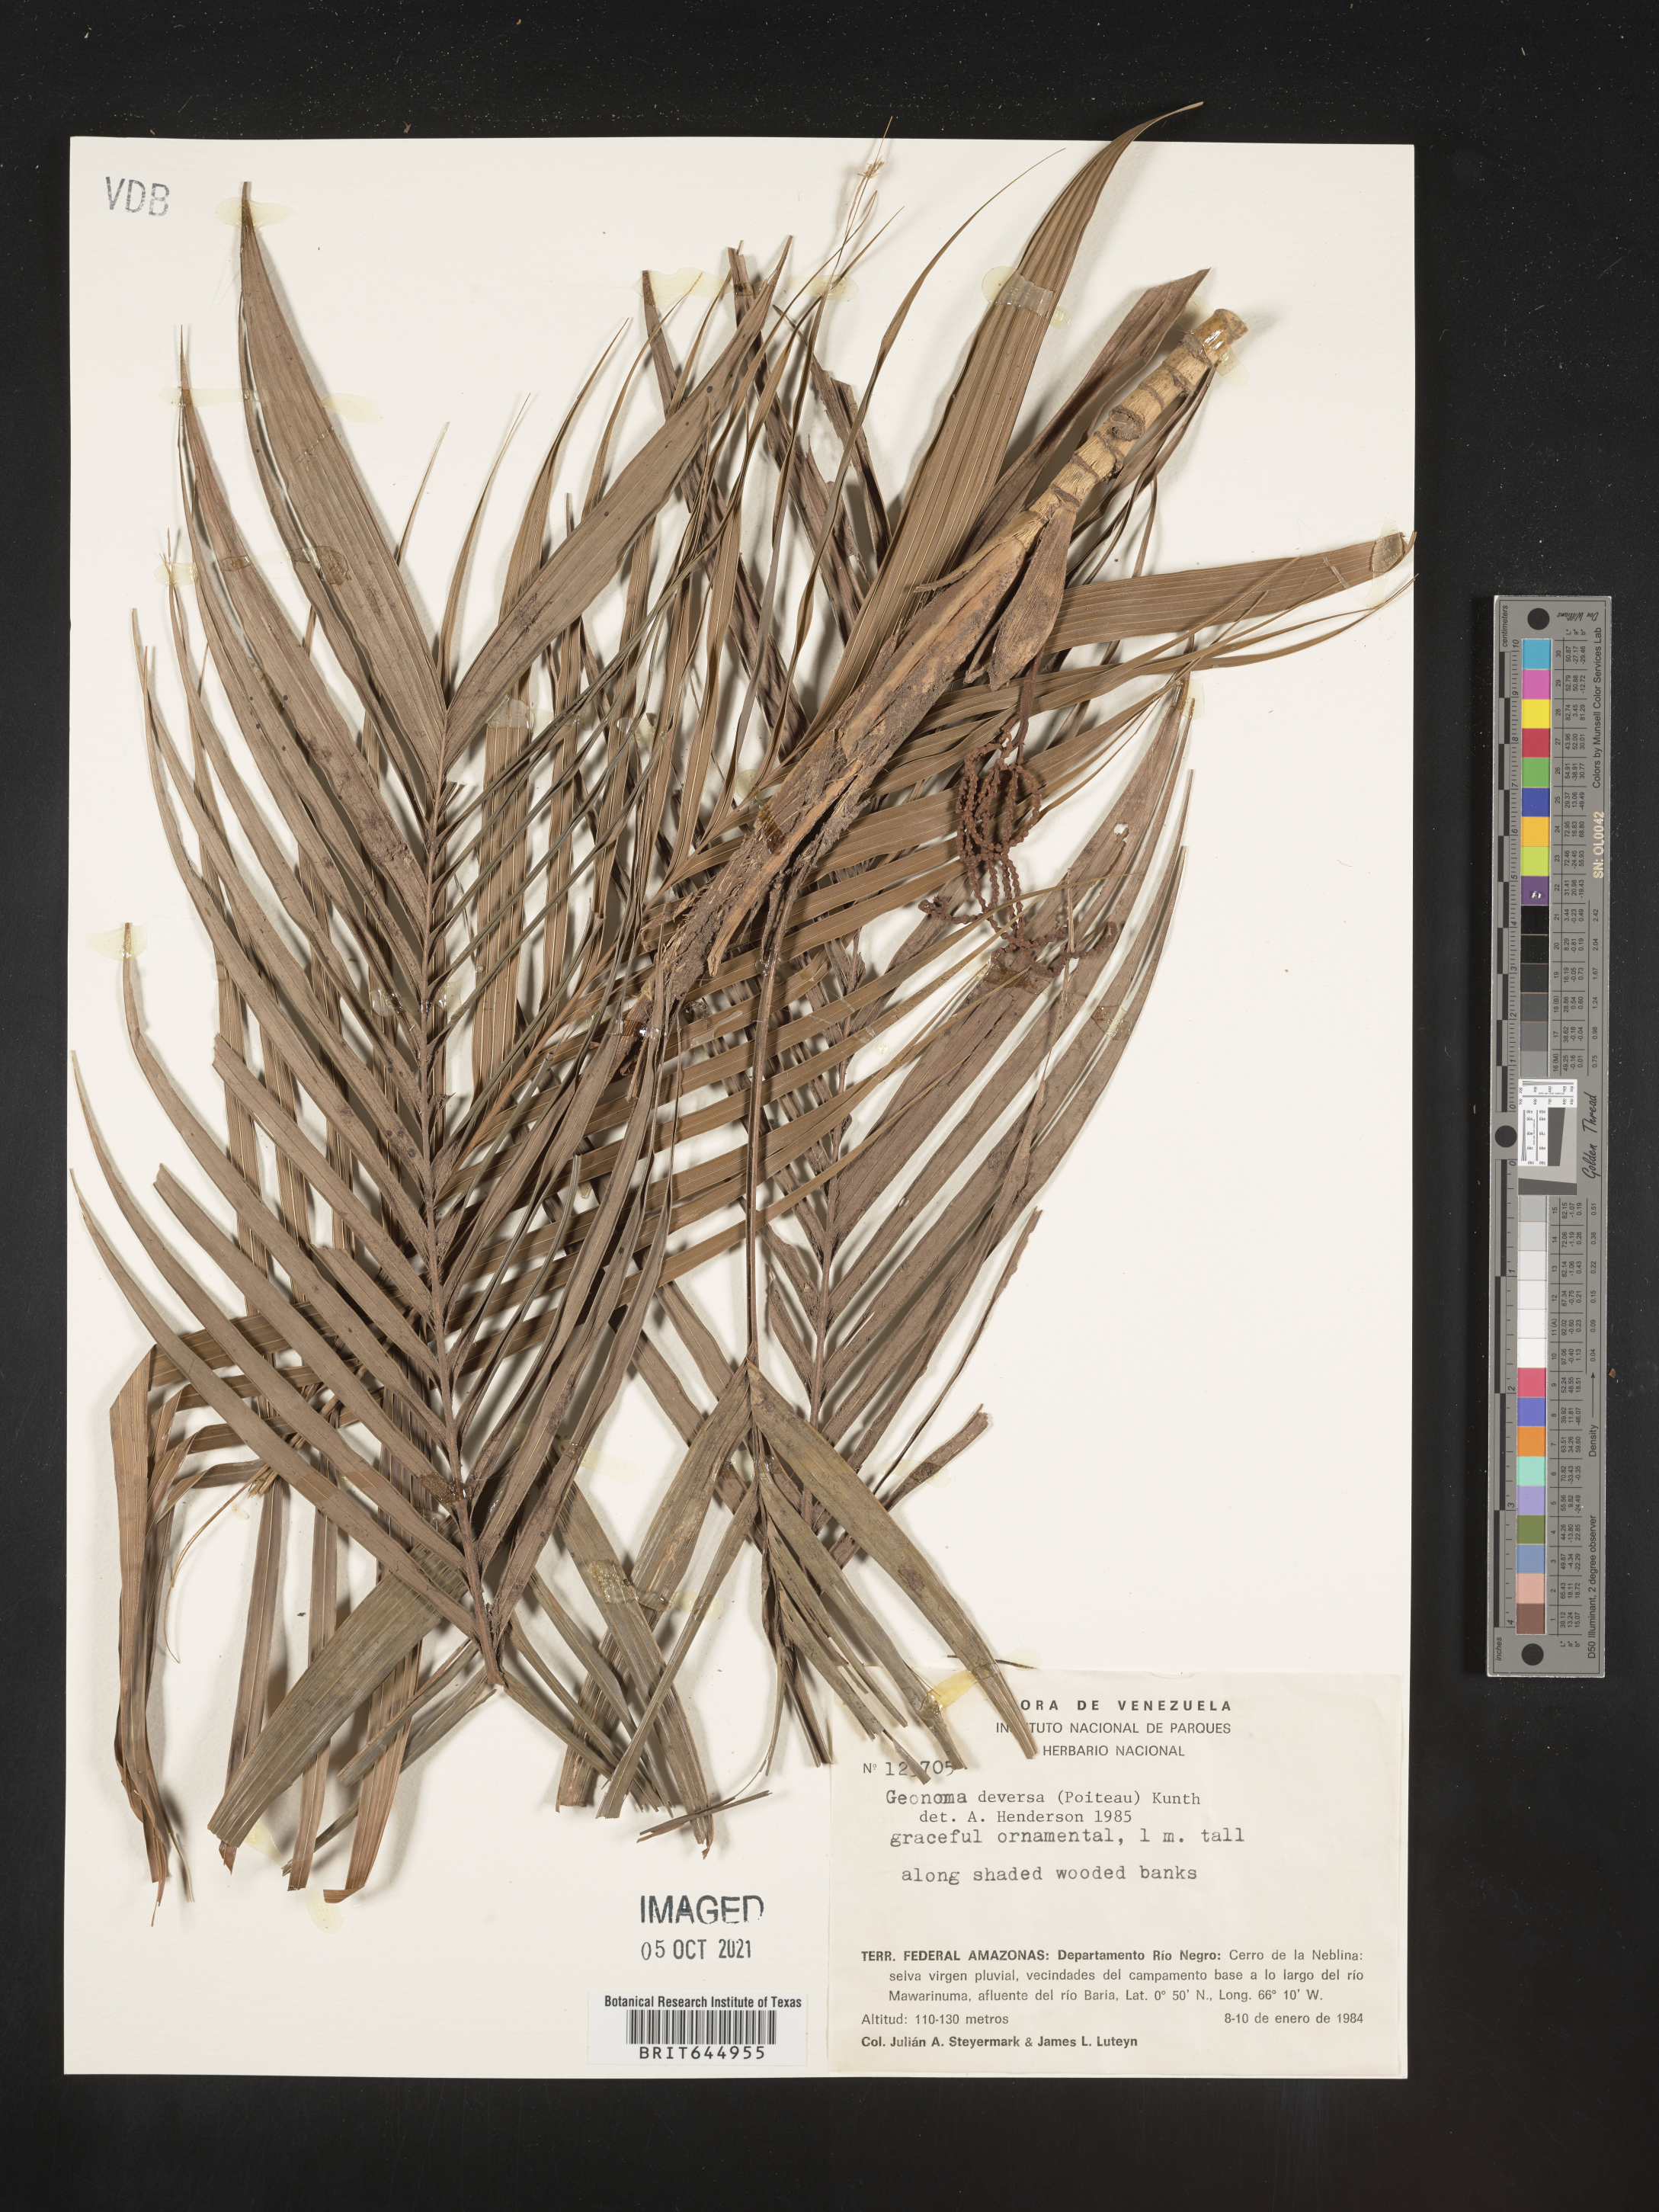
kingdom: Plantae
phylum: Tracheophyta
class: Liliopsida
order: Arecales
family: Arecaceae
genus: Geonoma
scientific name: Geonoma deversa
